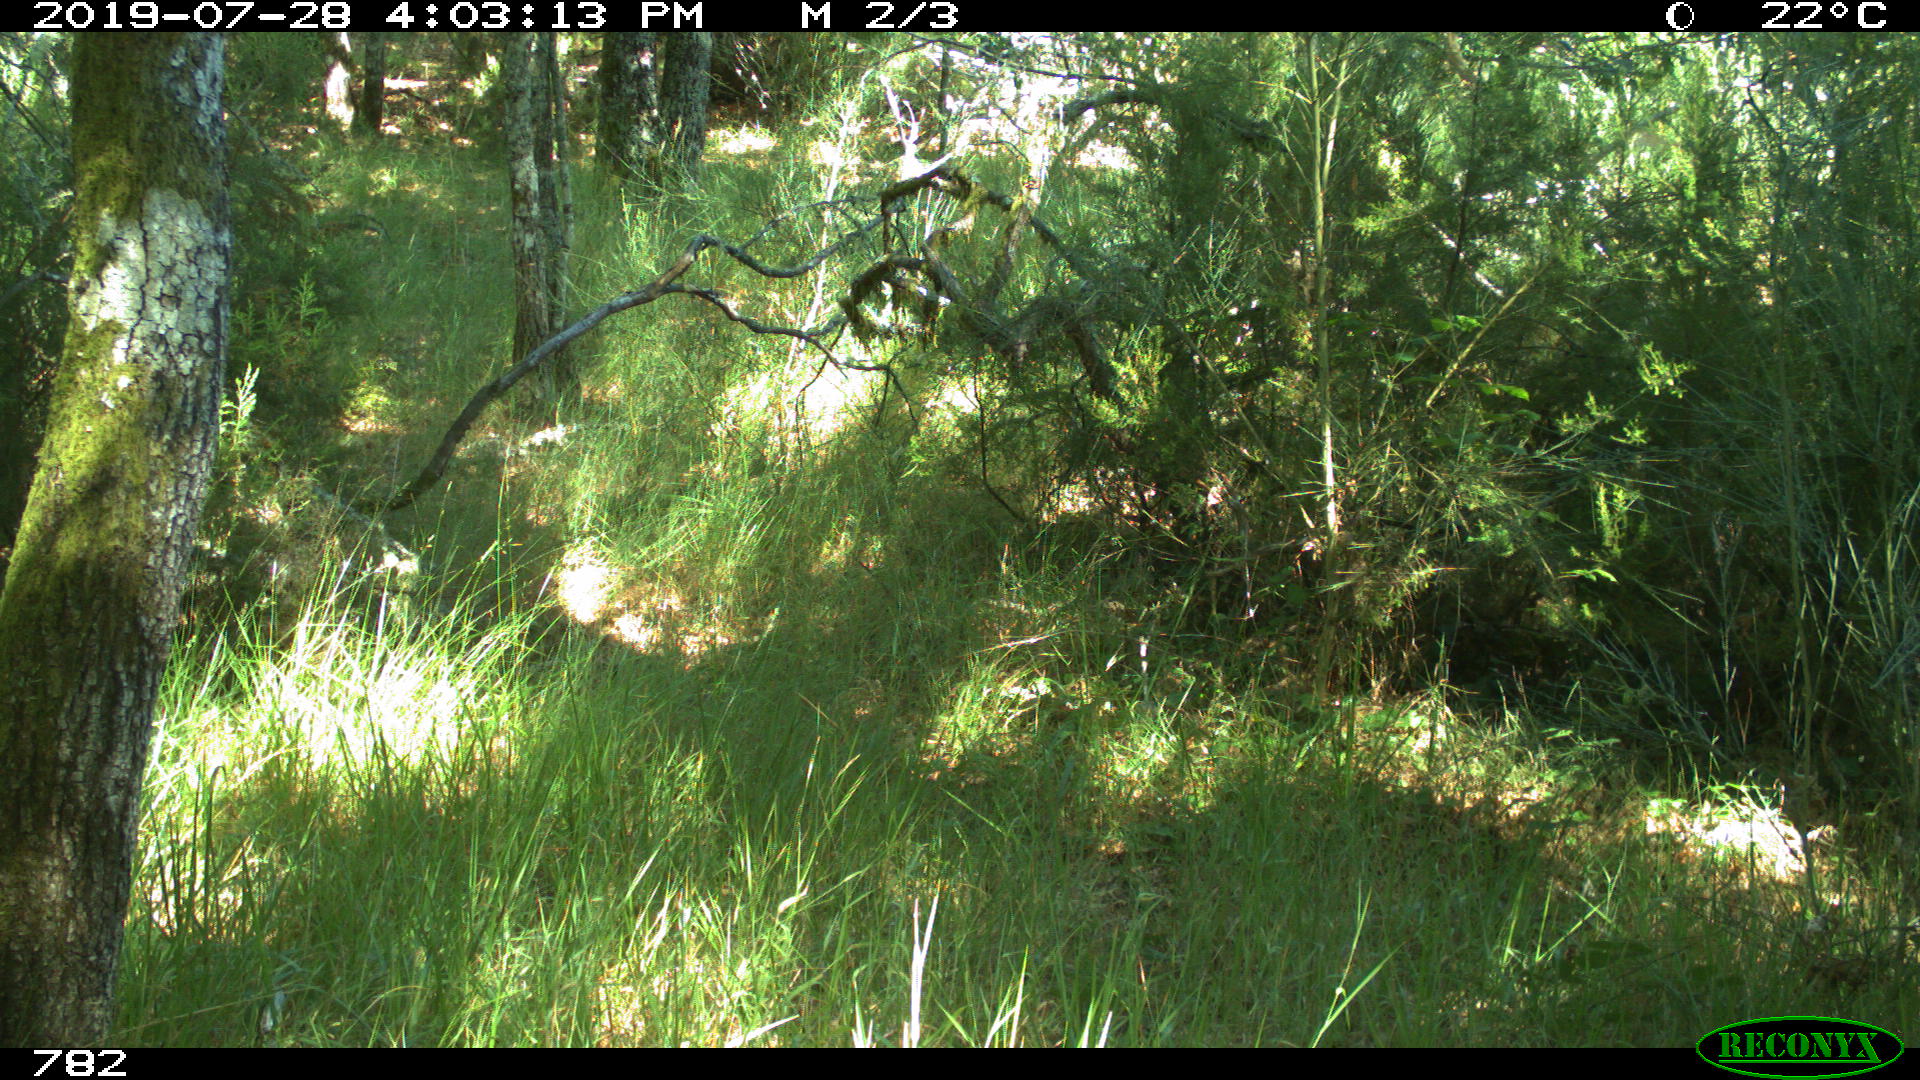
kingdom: Animalia
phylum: Chordata
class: Mammalia
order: Carnivora
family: Canidae
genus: Vulpes
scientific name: Vulpes vulpes
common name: Red fox
